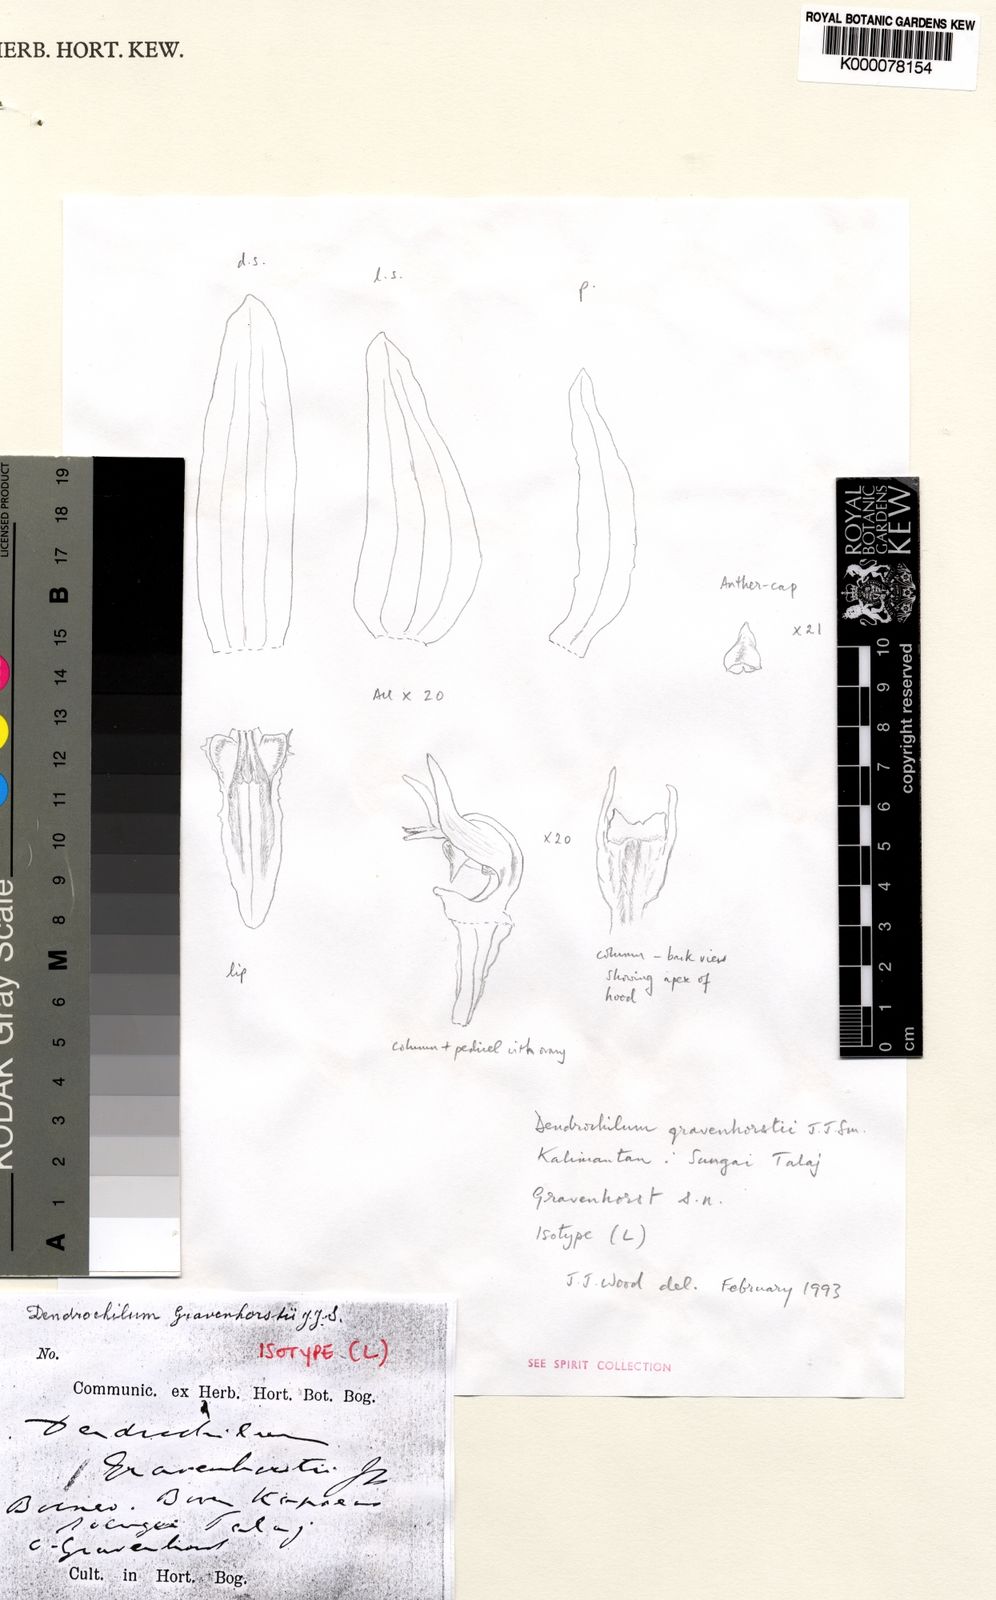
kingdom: Plantae
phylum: Tracheophyta
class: Liliopsida
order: Asparagales
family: Orchidaceae
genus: Coelogyne
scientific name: Coelogyne gravenhorstii
